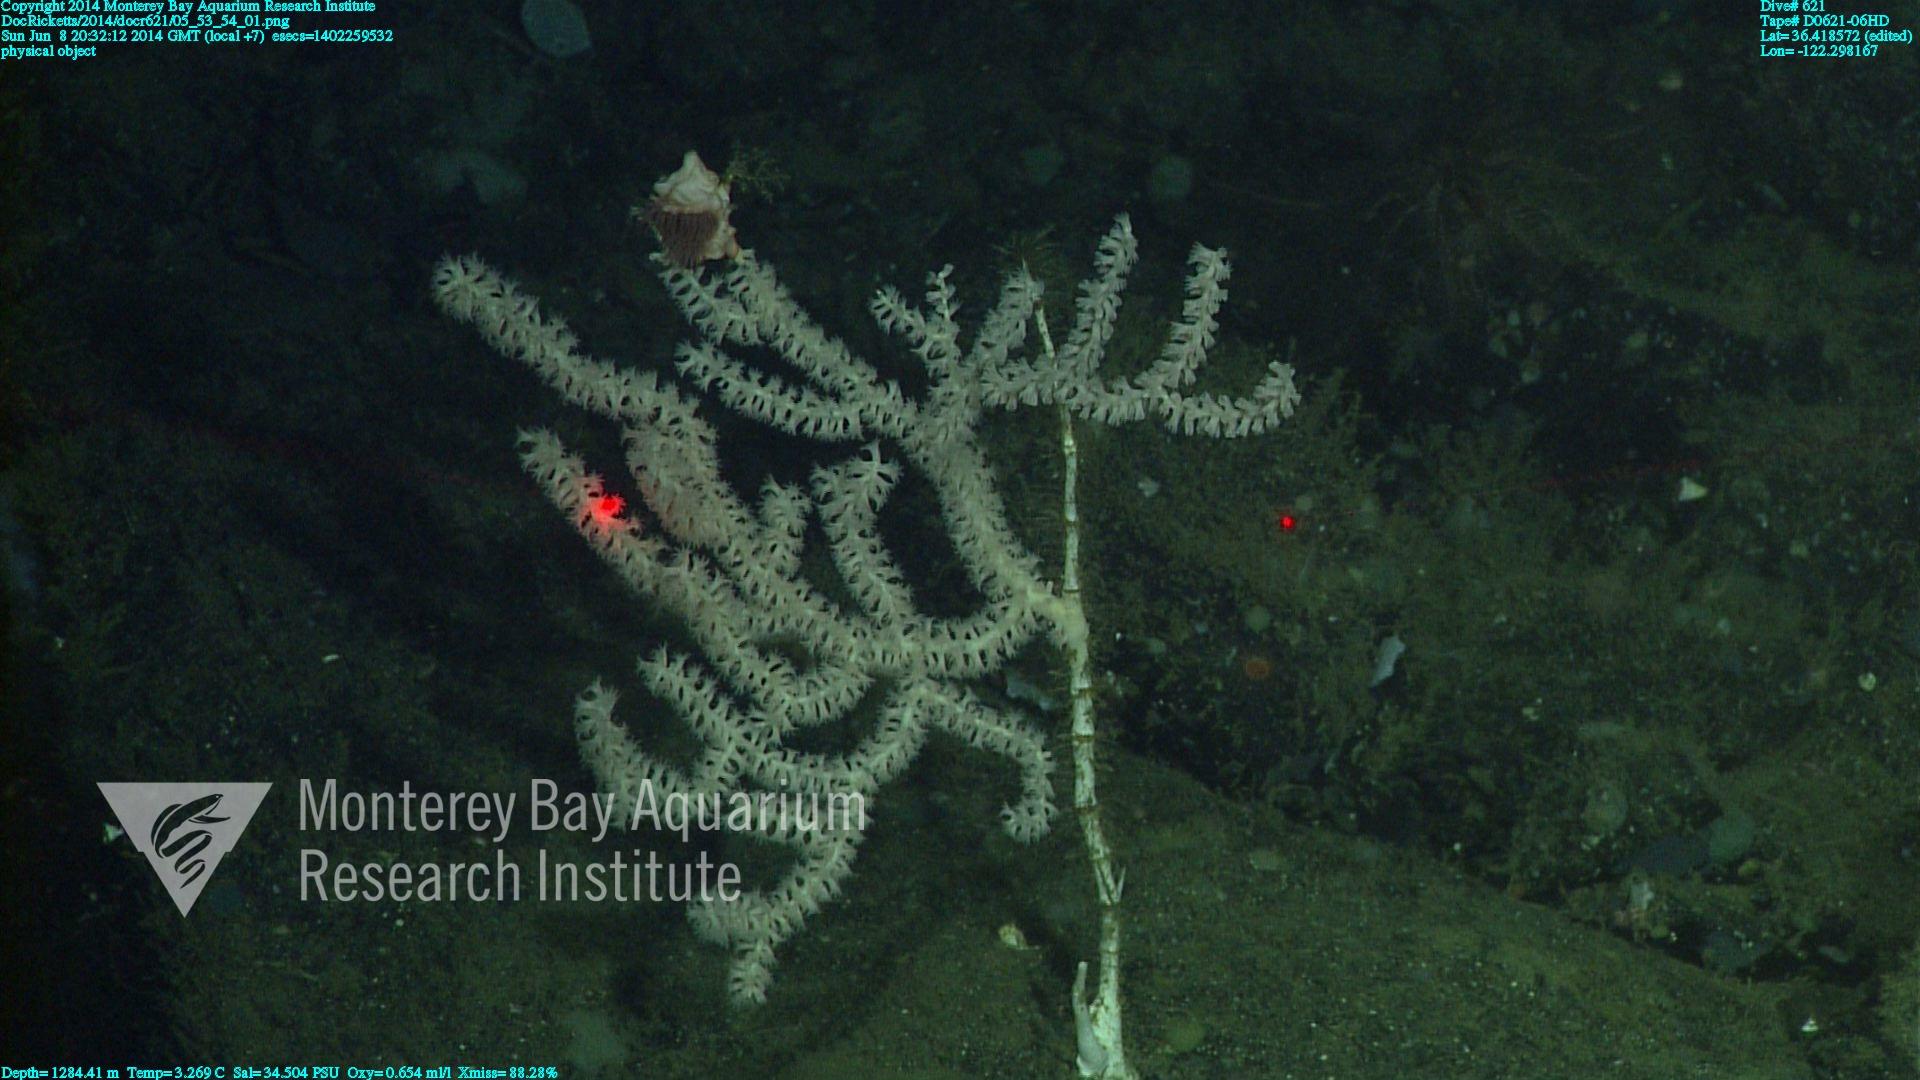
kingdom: Animalia
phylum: Cnidaria
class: Anthozoa
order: Scleralcyonacea
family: Keratoisididae
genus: Keratoisis
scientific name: Keratoisis
